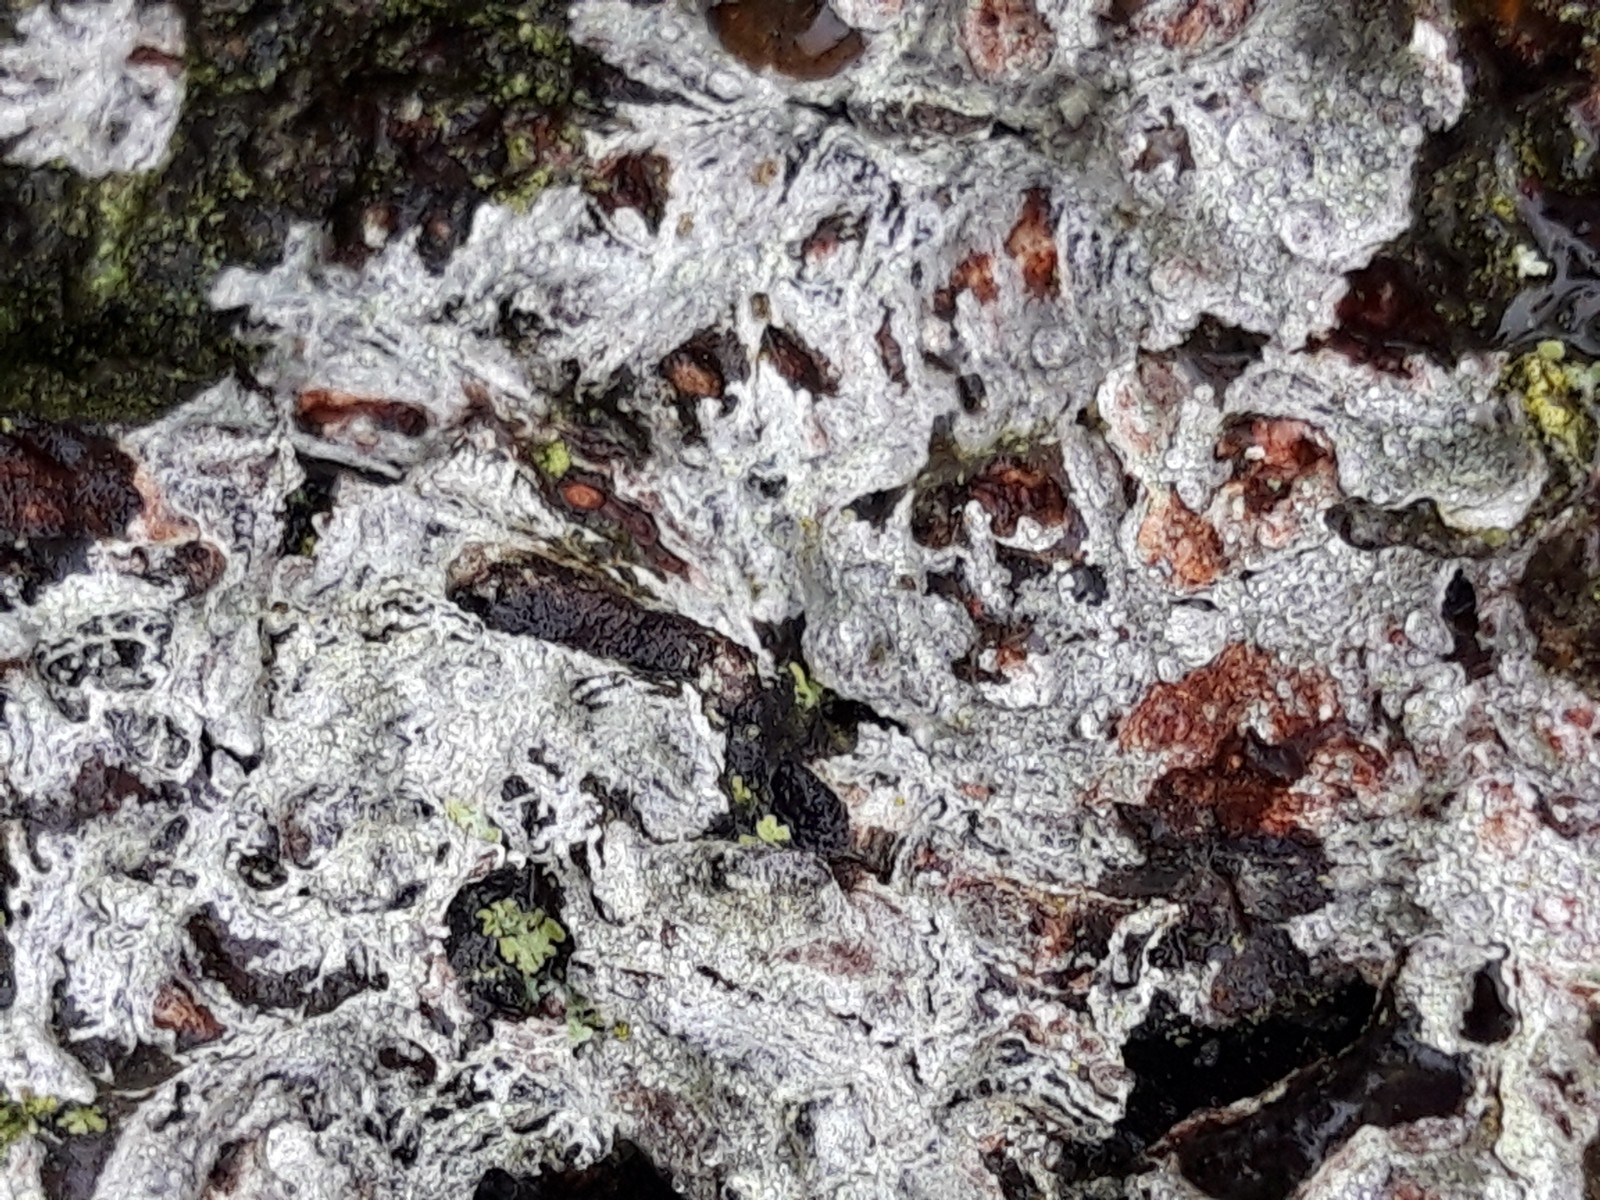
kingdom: Fungi
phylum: Ascomycota
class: Lecanoromycetes
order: Lecanorales
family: Lecanoraceae
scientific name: Lecanoraceae
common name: skivelavfamilien
